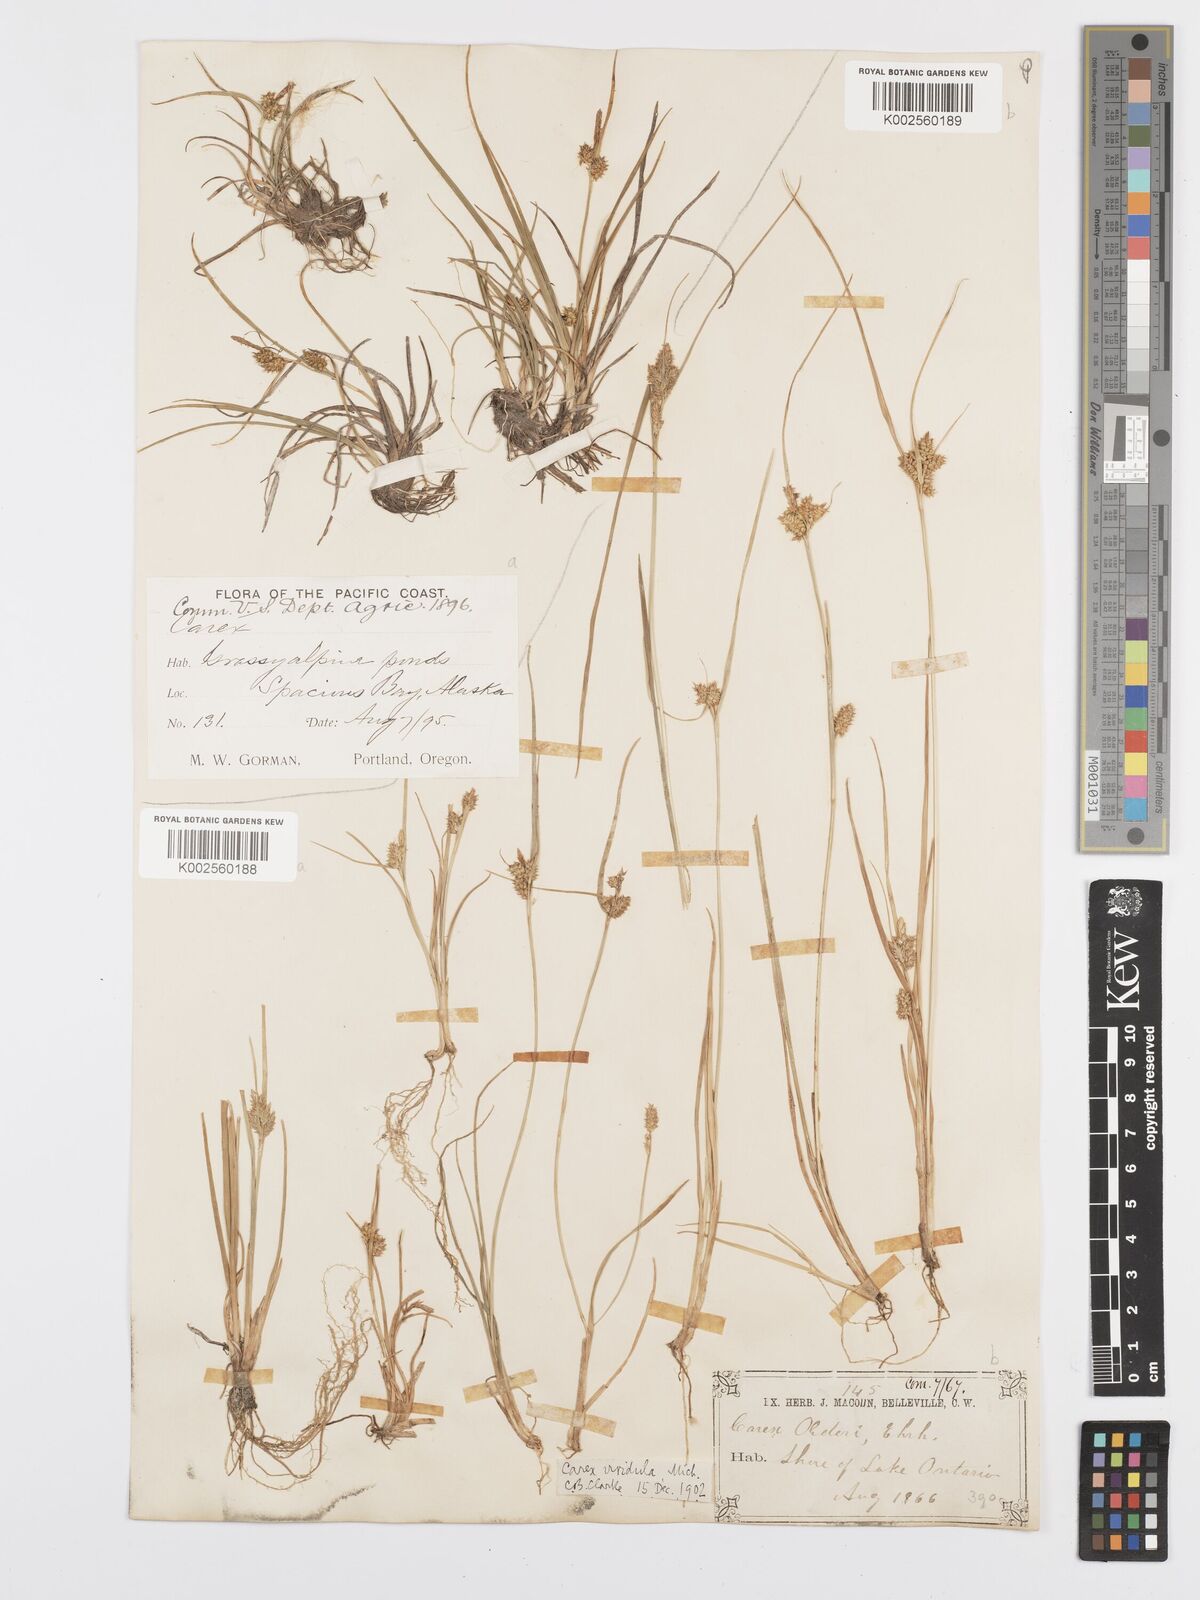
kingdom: Plantae
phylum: Tracheophyta
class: Liliopsida
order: Poales
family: Cyperaceae
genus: Carex
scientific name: Carex oederi
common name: Common & small-fruited yellow-sedge
